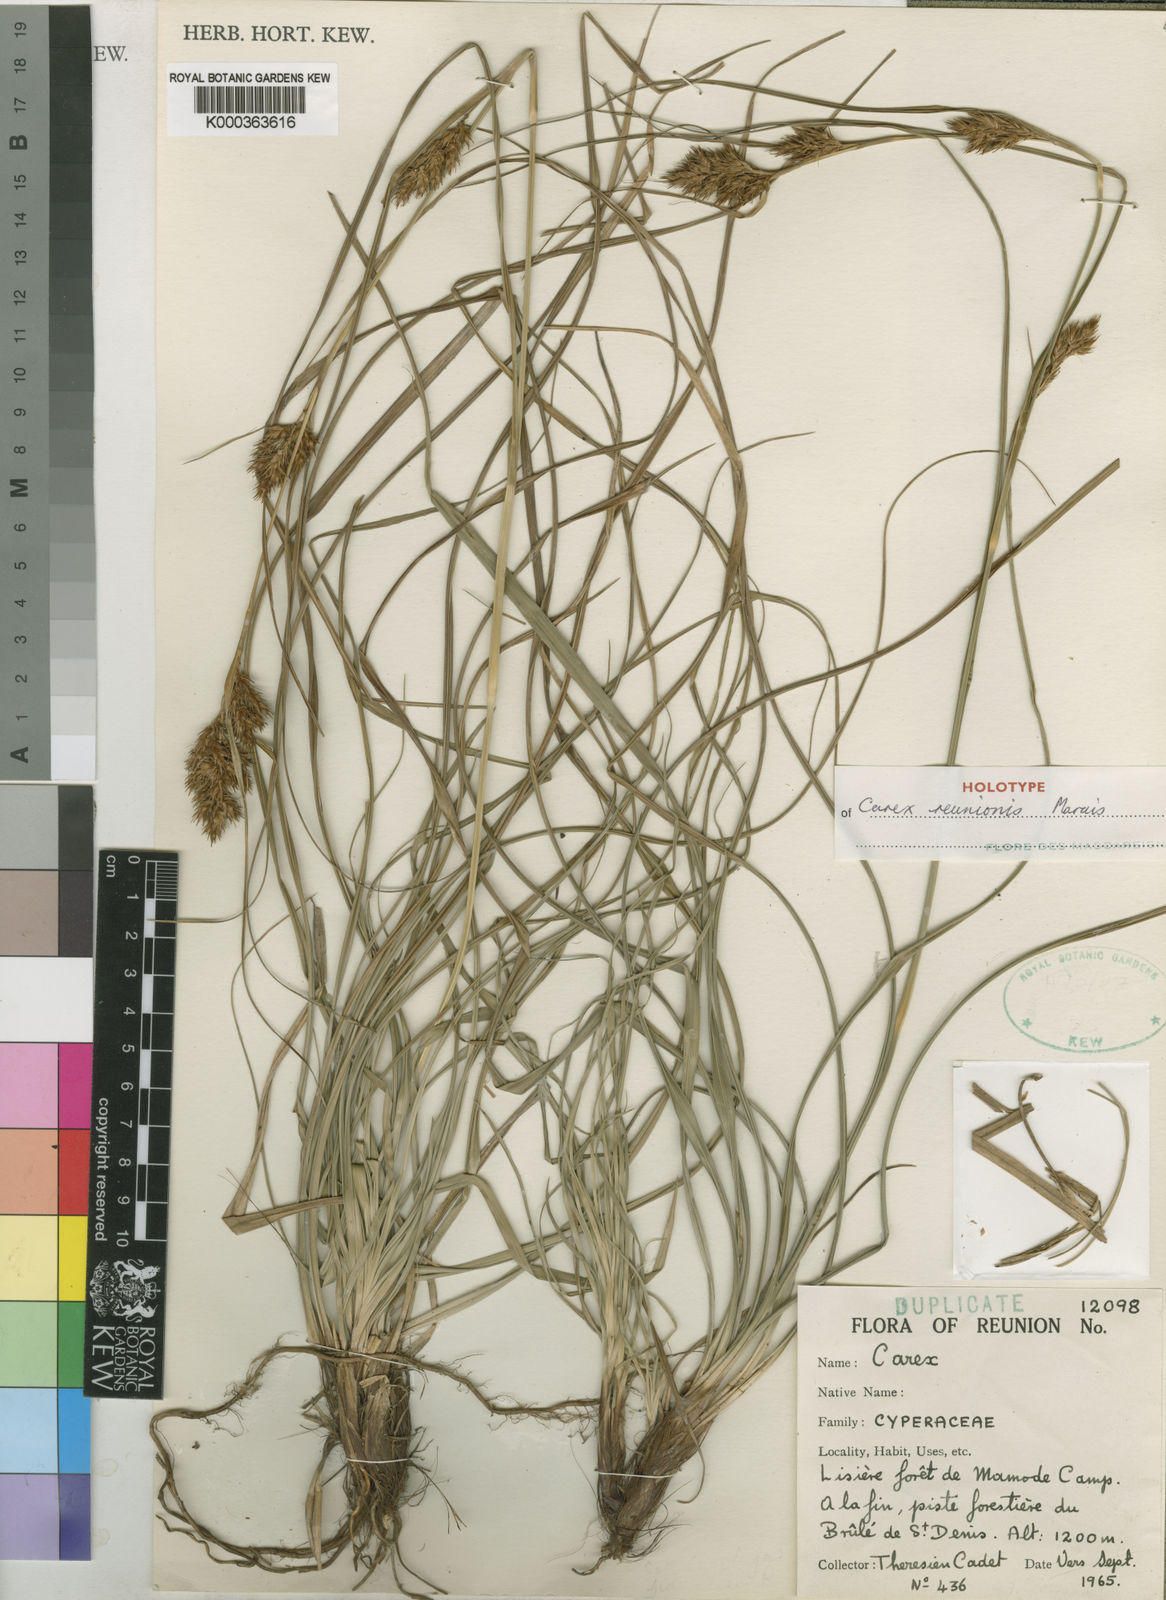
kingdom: Plantae
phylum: Tracheophyta
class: Liliopsida
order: Poales
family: Cyperaceae
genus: Carex
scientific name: Carex
